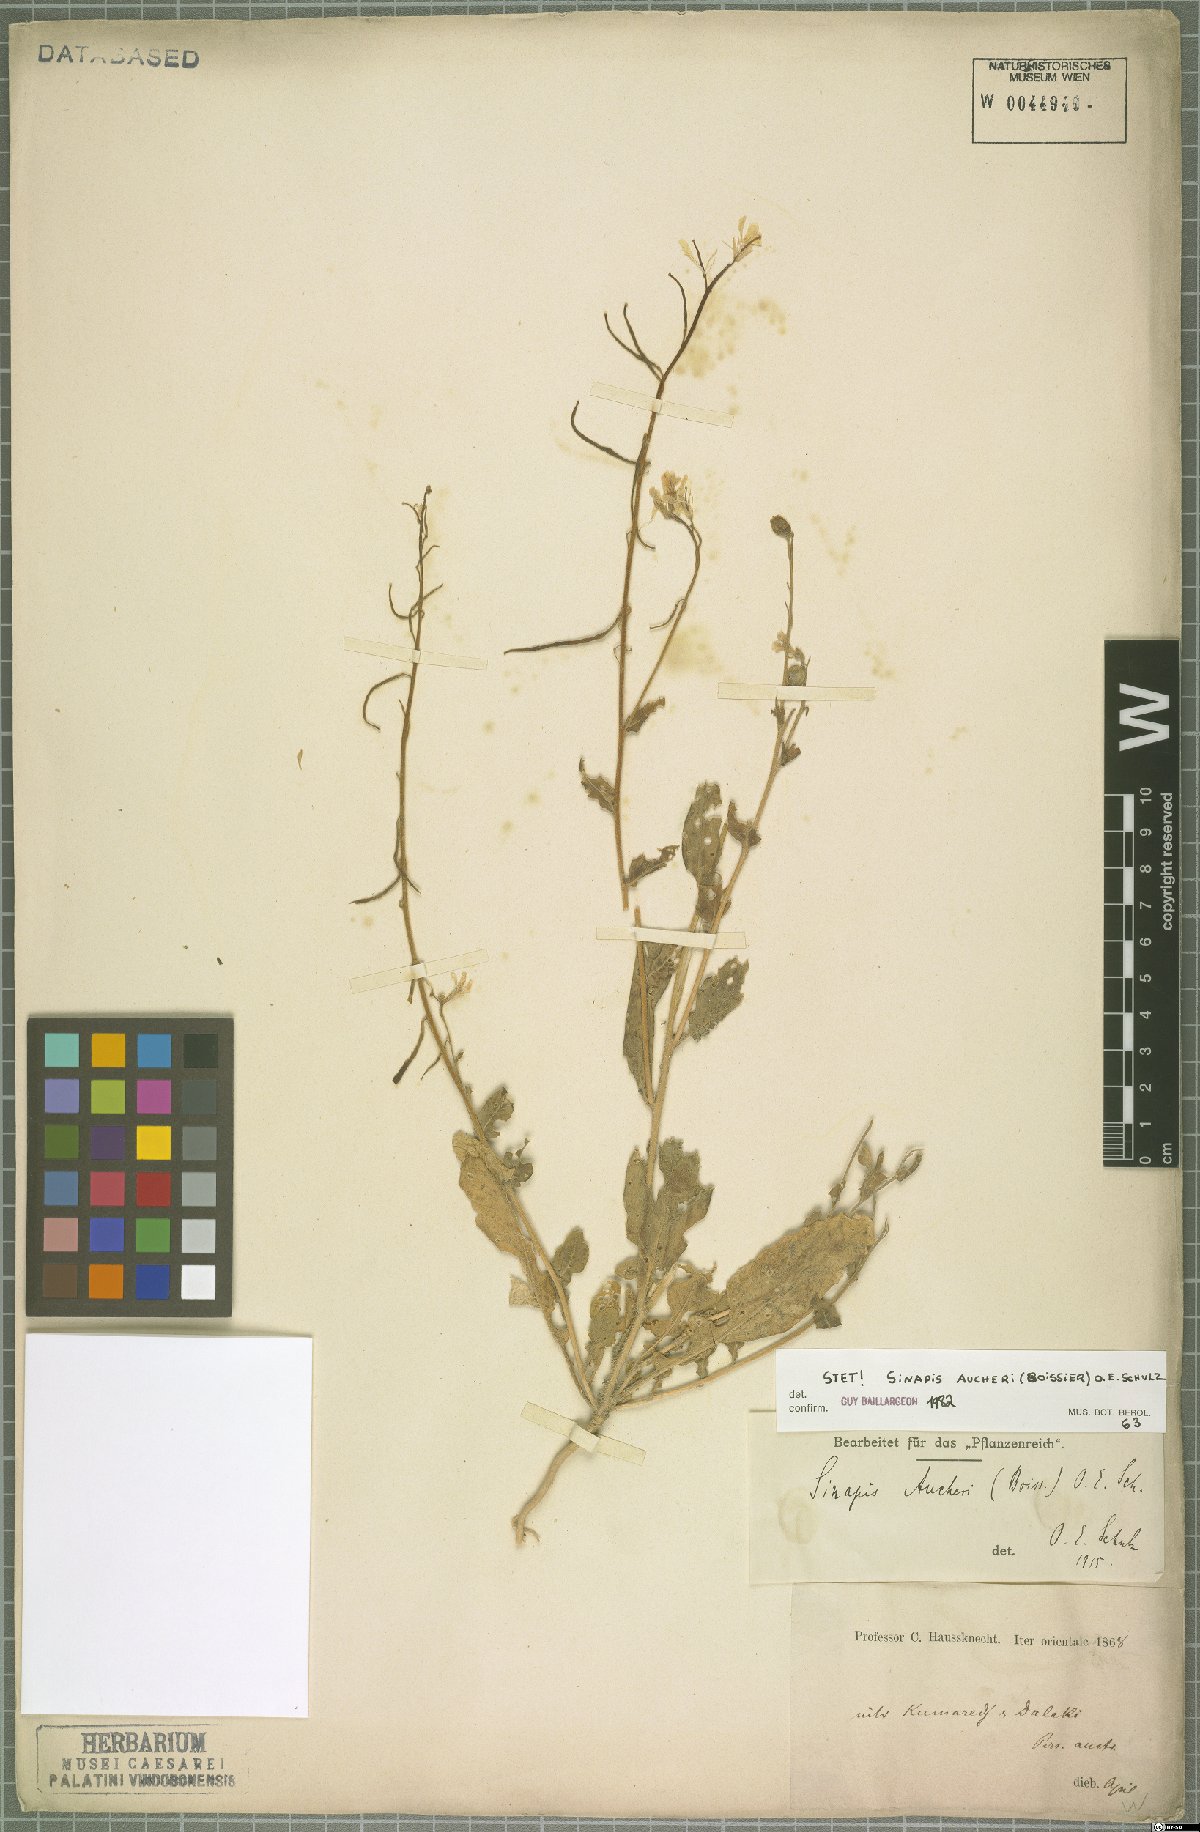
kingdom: Plantae
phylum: Tracheophyta
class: Magnoliopsida
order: Brassicales
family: Brassicaceae
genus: Brassica
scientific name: Brassica aucheri
